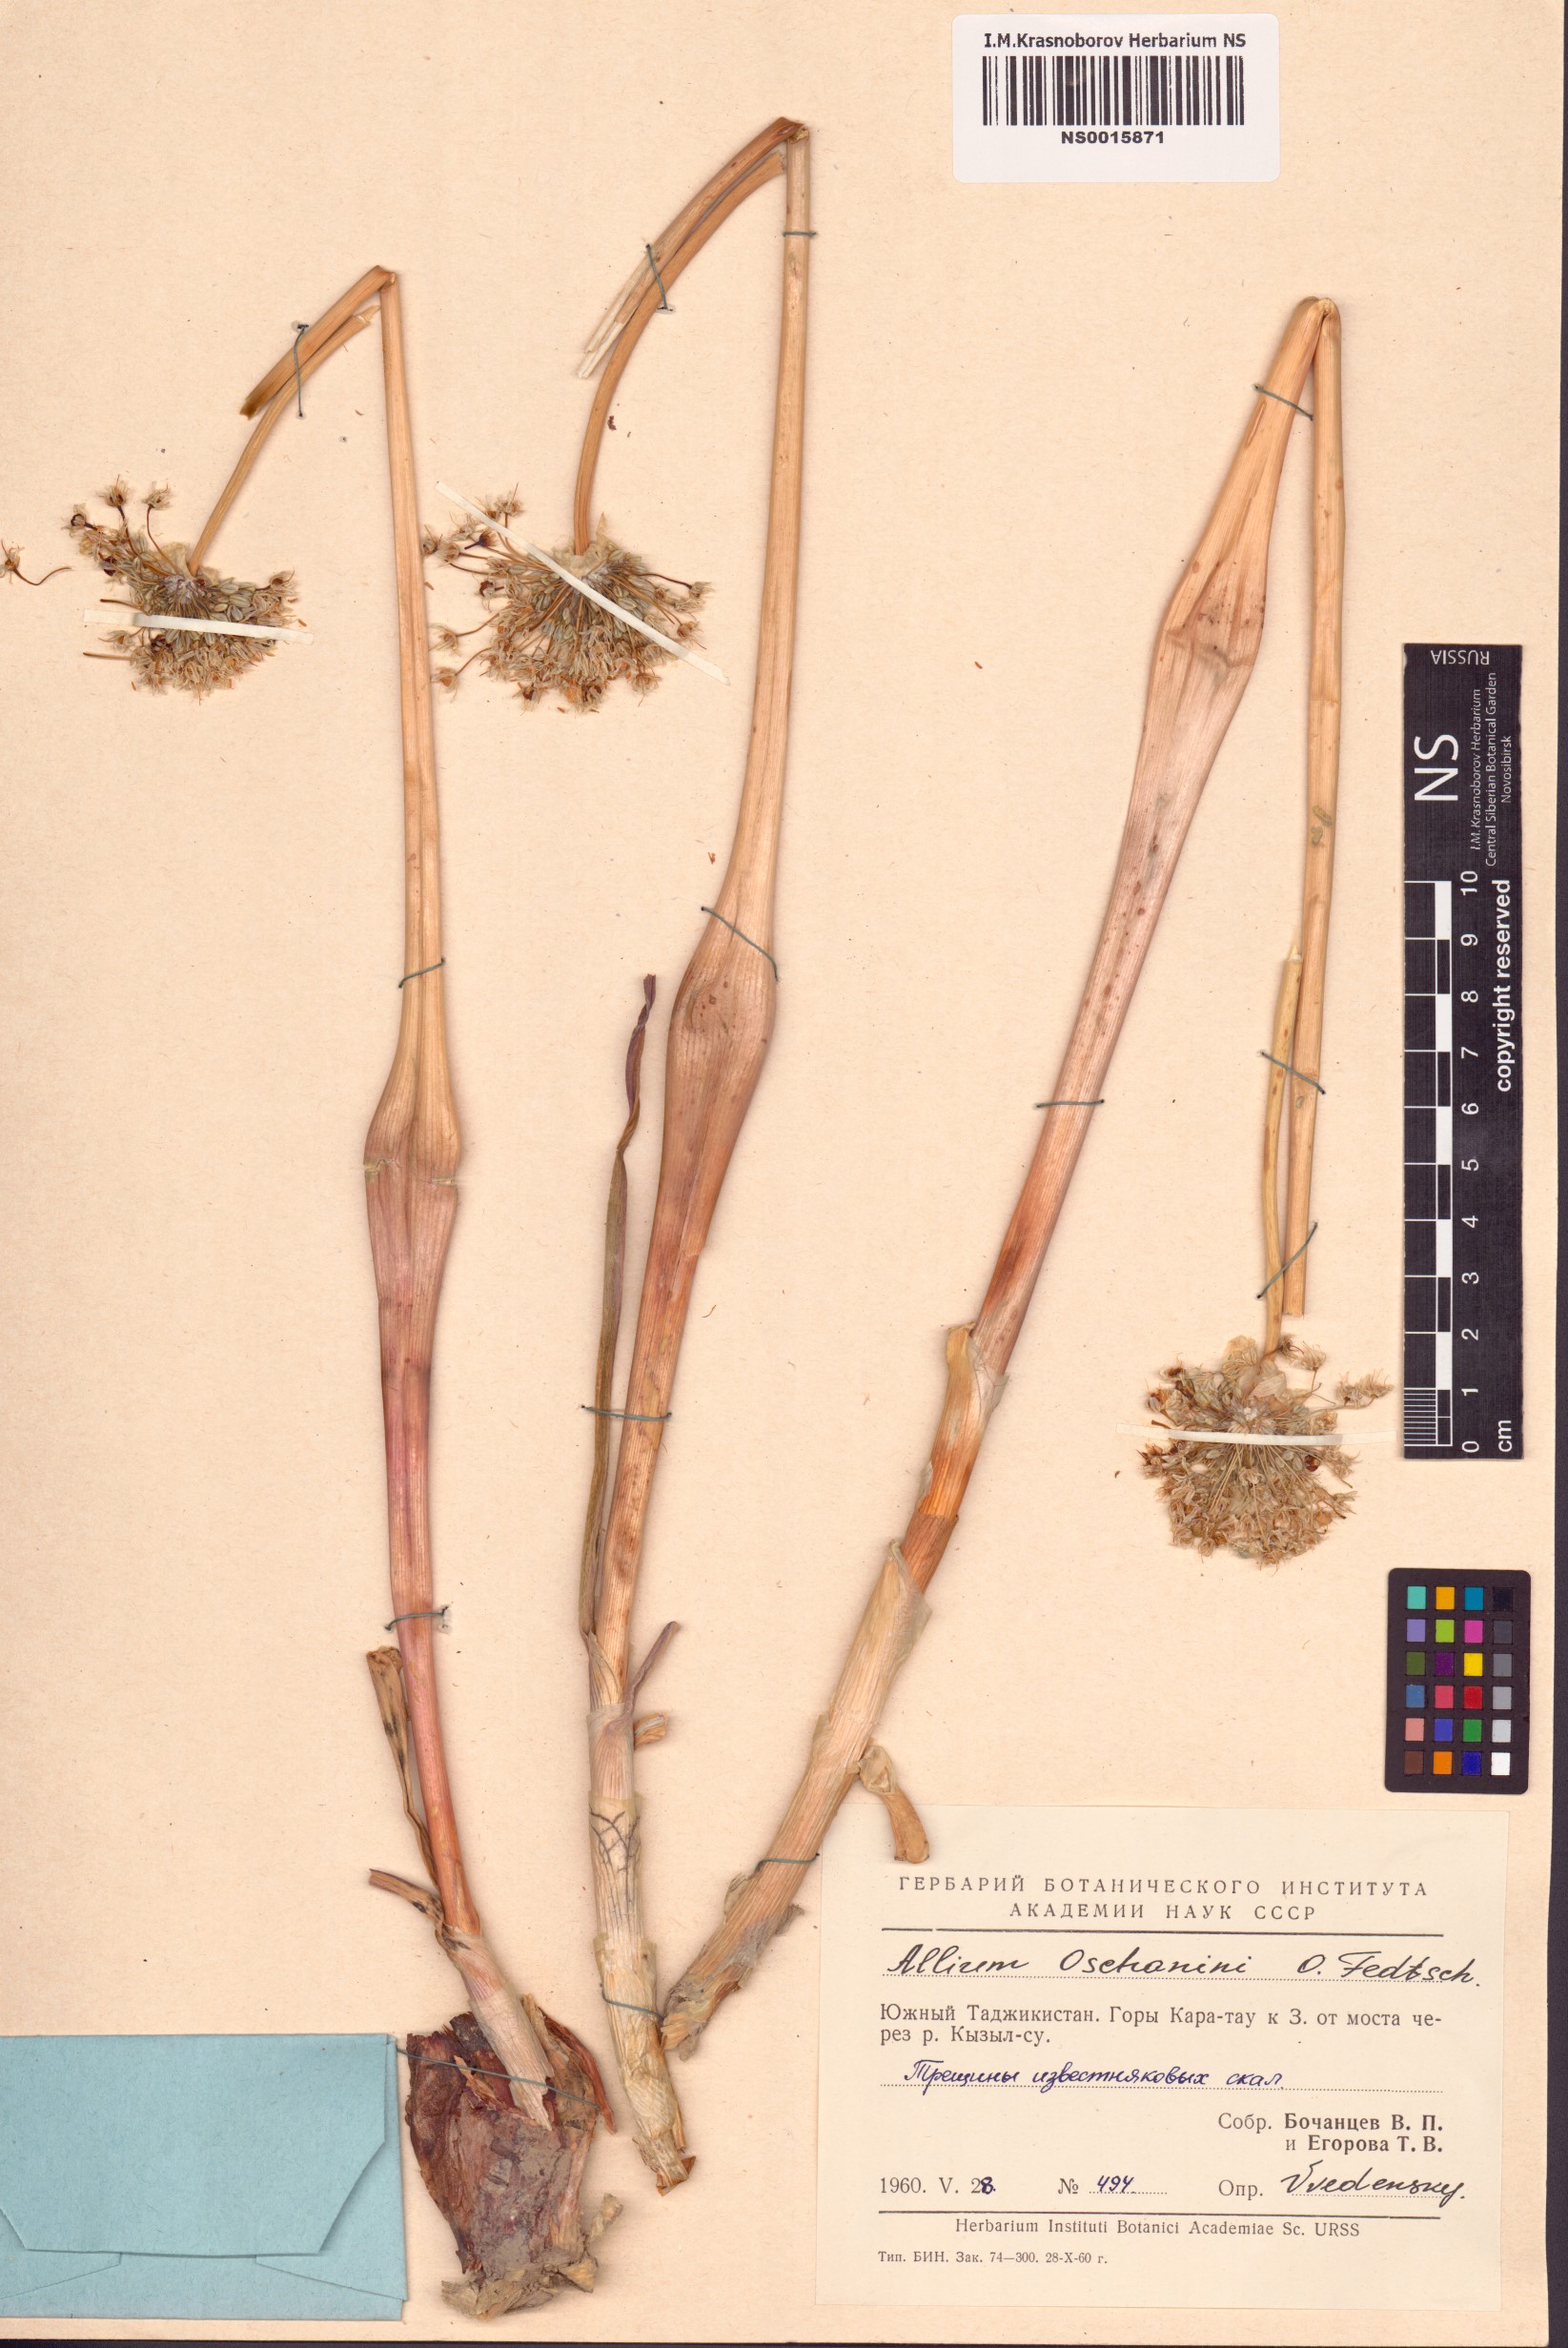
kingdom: Plantae
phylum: Tracheophyta
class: Liliopsida
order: Asparagales
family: Amaryllidaceae
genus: Allium
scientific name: Allium oschaninii
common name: French grey shallot
